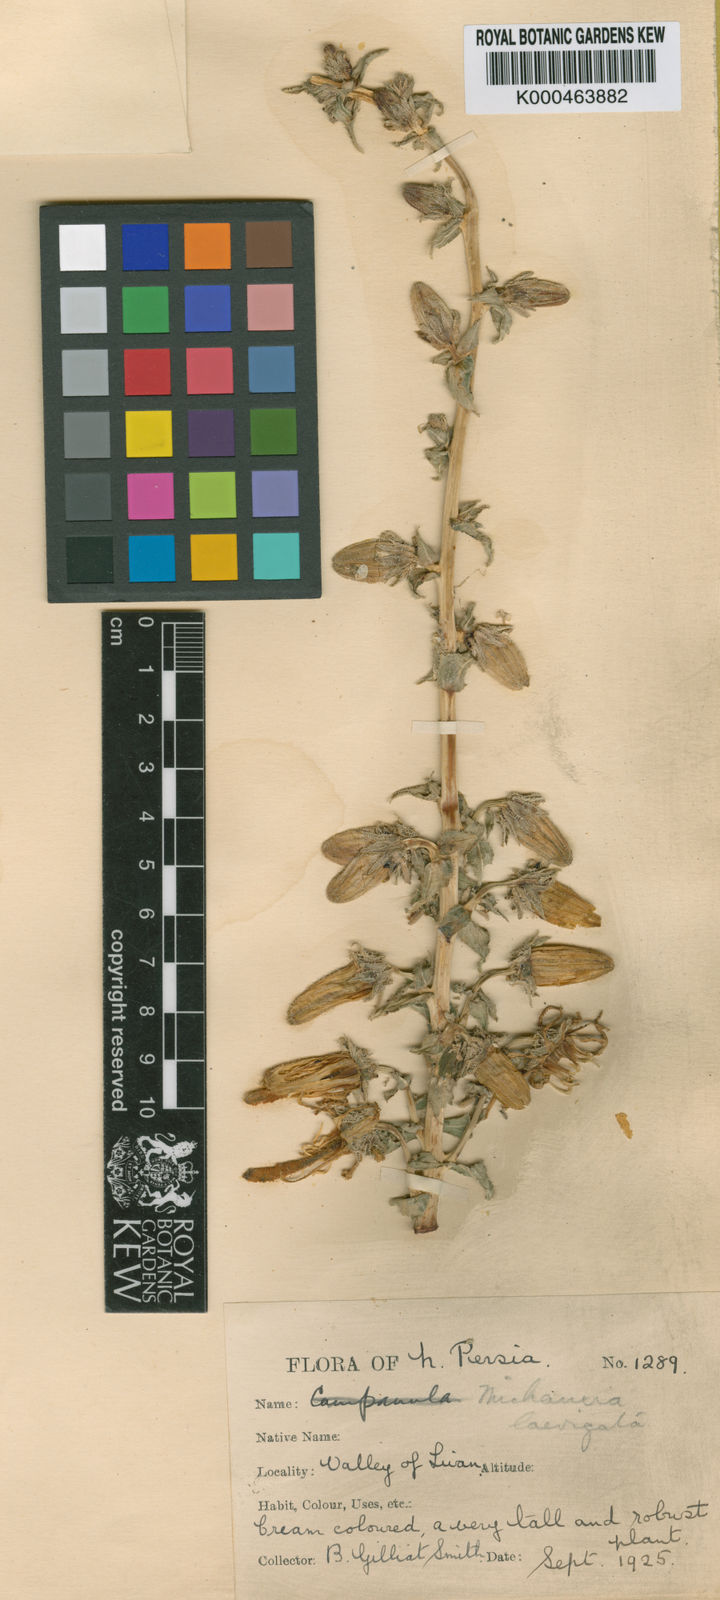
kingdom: Plantae
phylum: Tracheophyta
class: Magnoliopsida
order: Asterales
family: Campanulaceae
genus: Michauxia
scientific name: Michauxia laevigata
